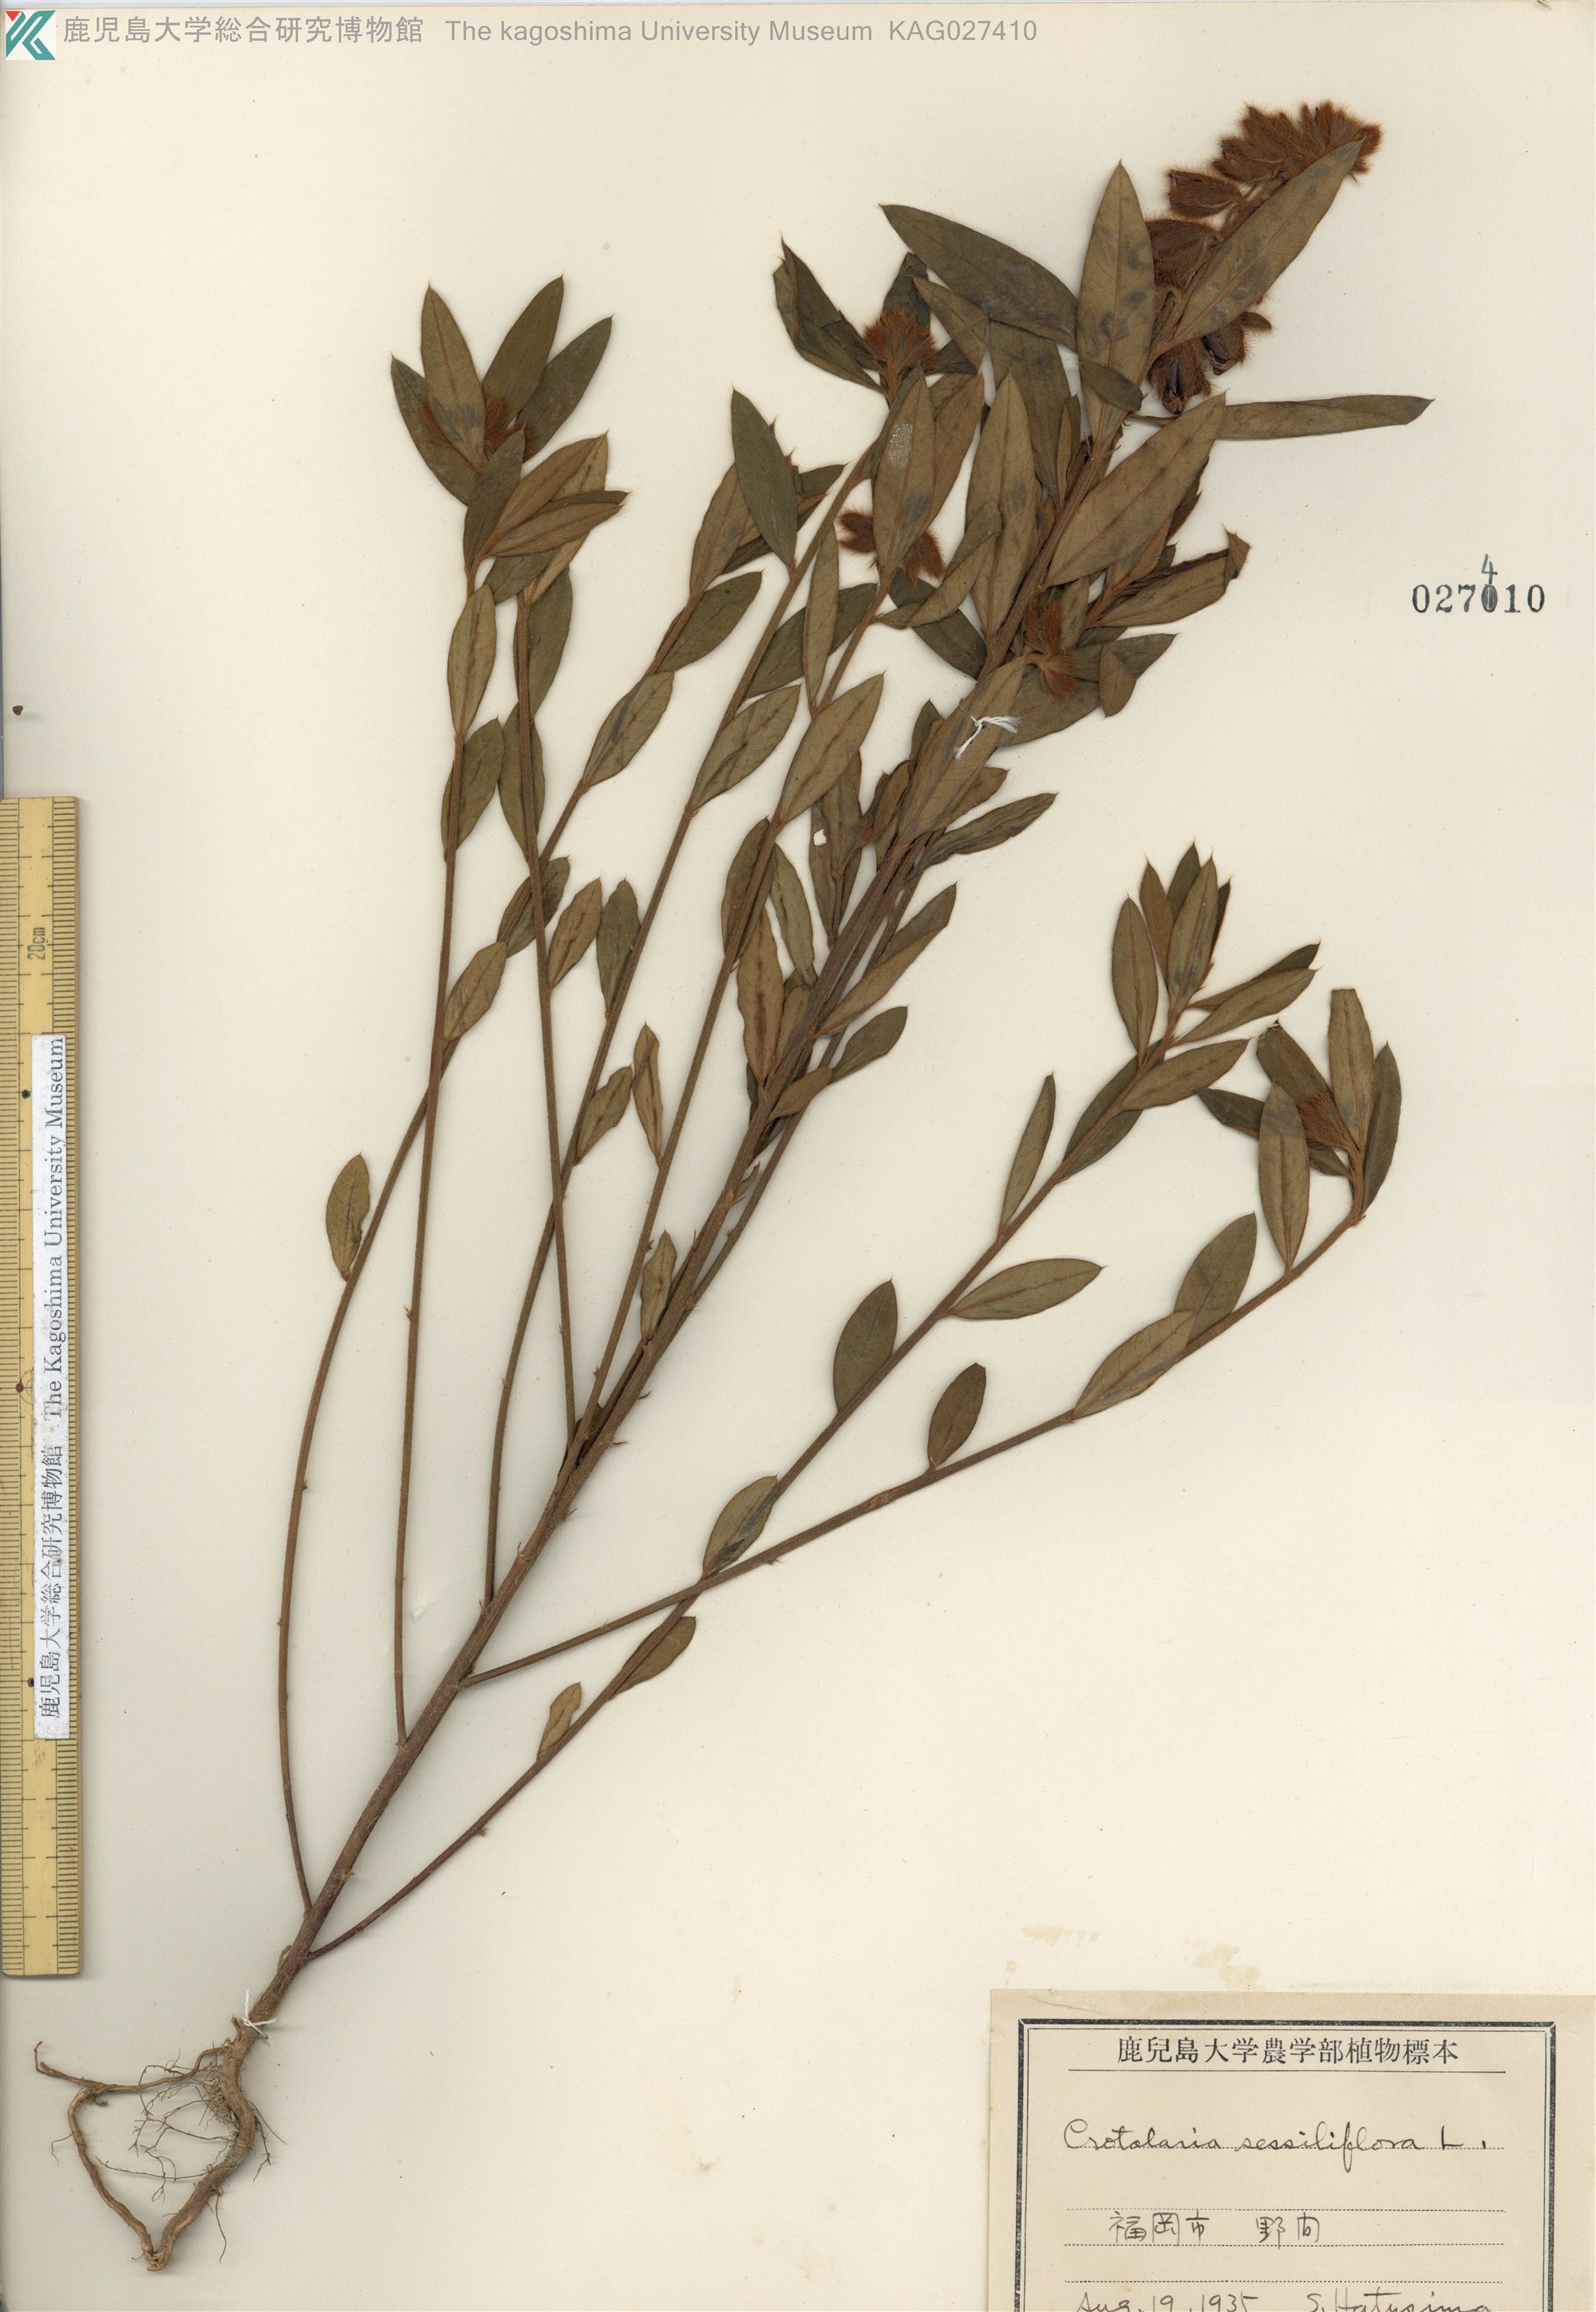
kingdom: Plantae
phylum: Tracheophyta
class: Magnoliopsida
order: Fabales
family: Fabaceae
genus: Crotalaria
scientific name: Crotalaria sessiliflora
